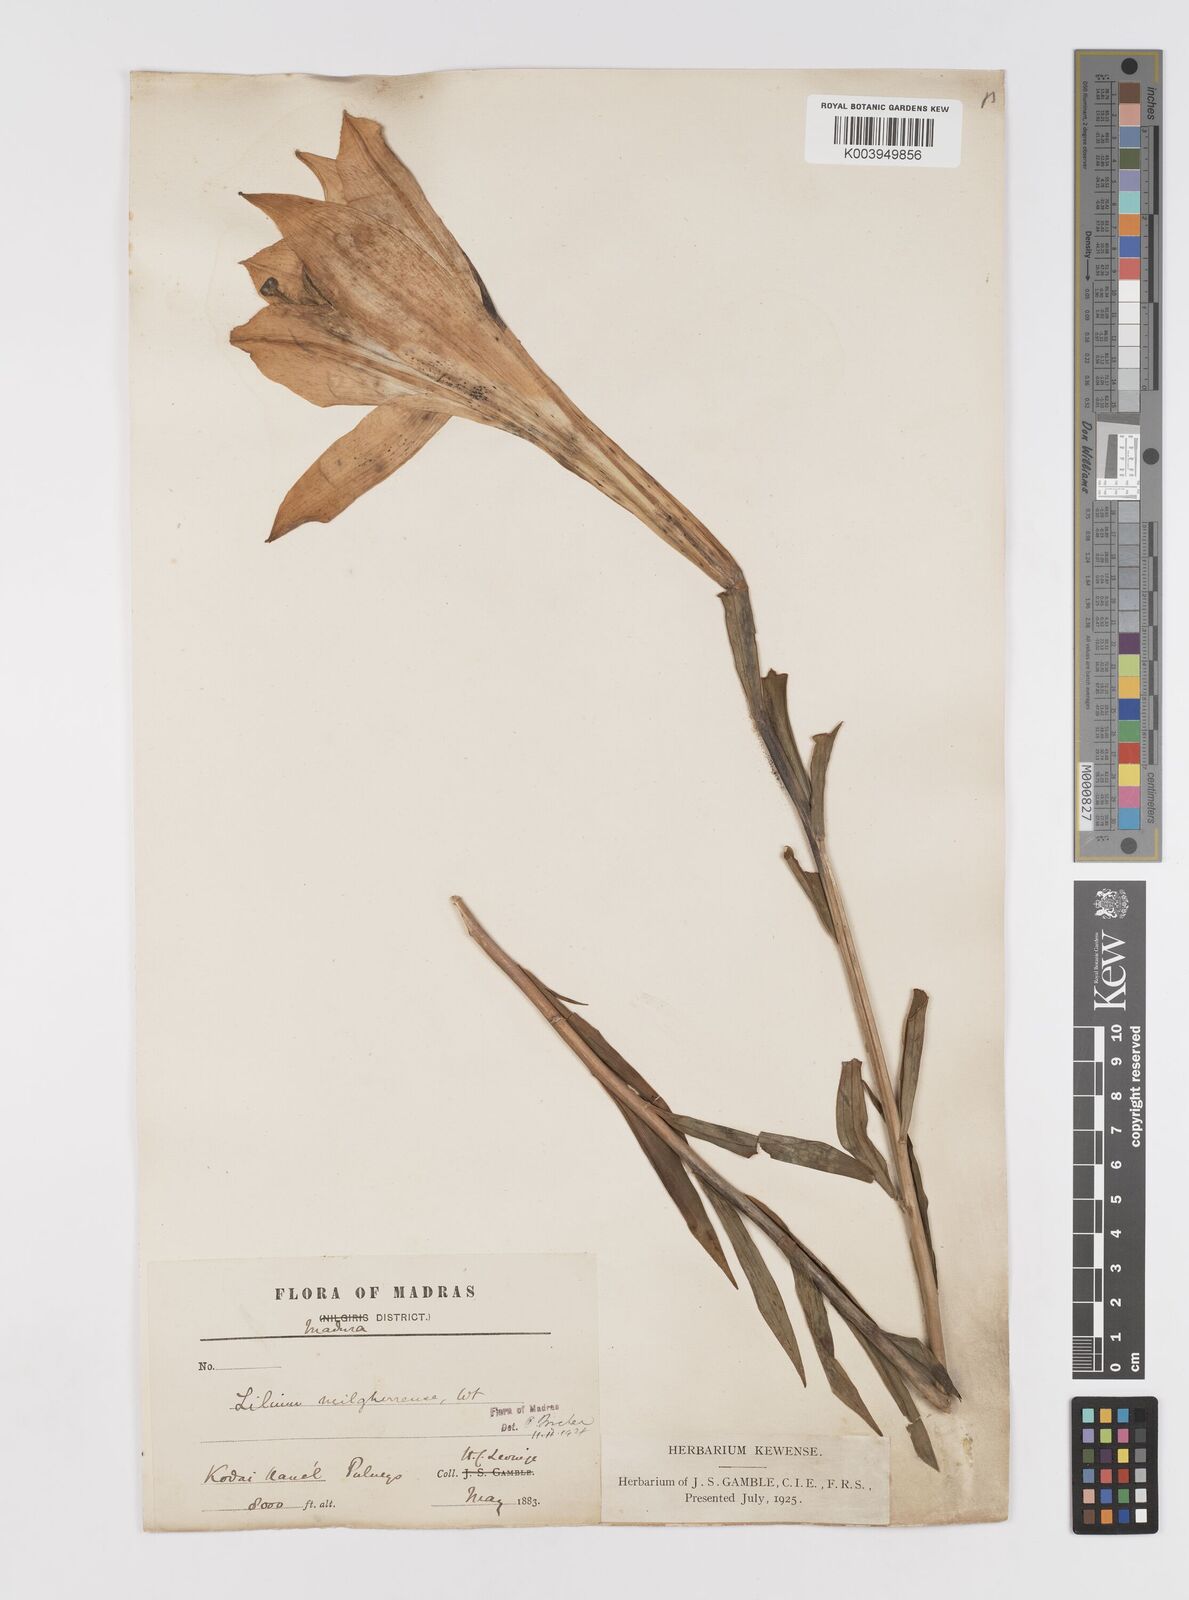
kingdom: Plantae
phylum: Tracheophyta
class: Liliopsida
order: Liliales
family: Liliaceae
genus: Lilium
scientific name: Lilium wallichianum
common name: Wallich's lily
